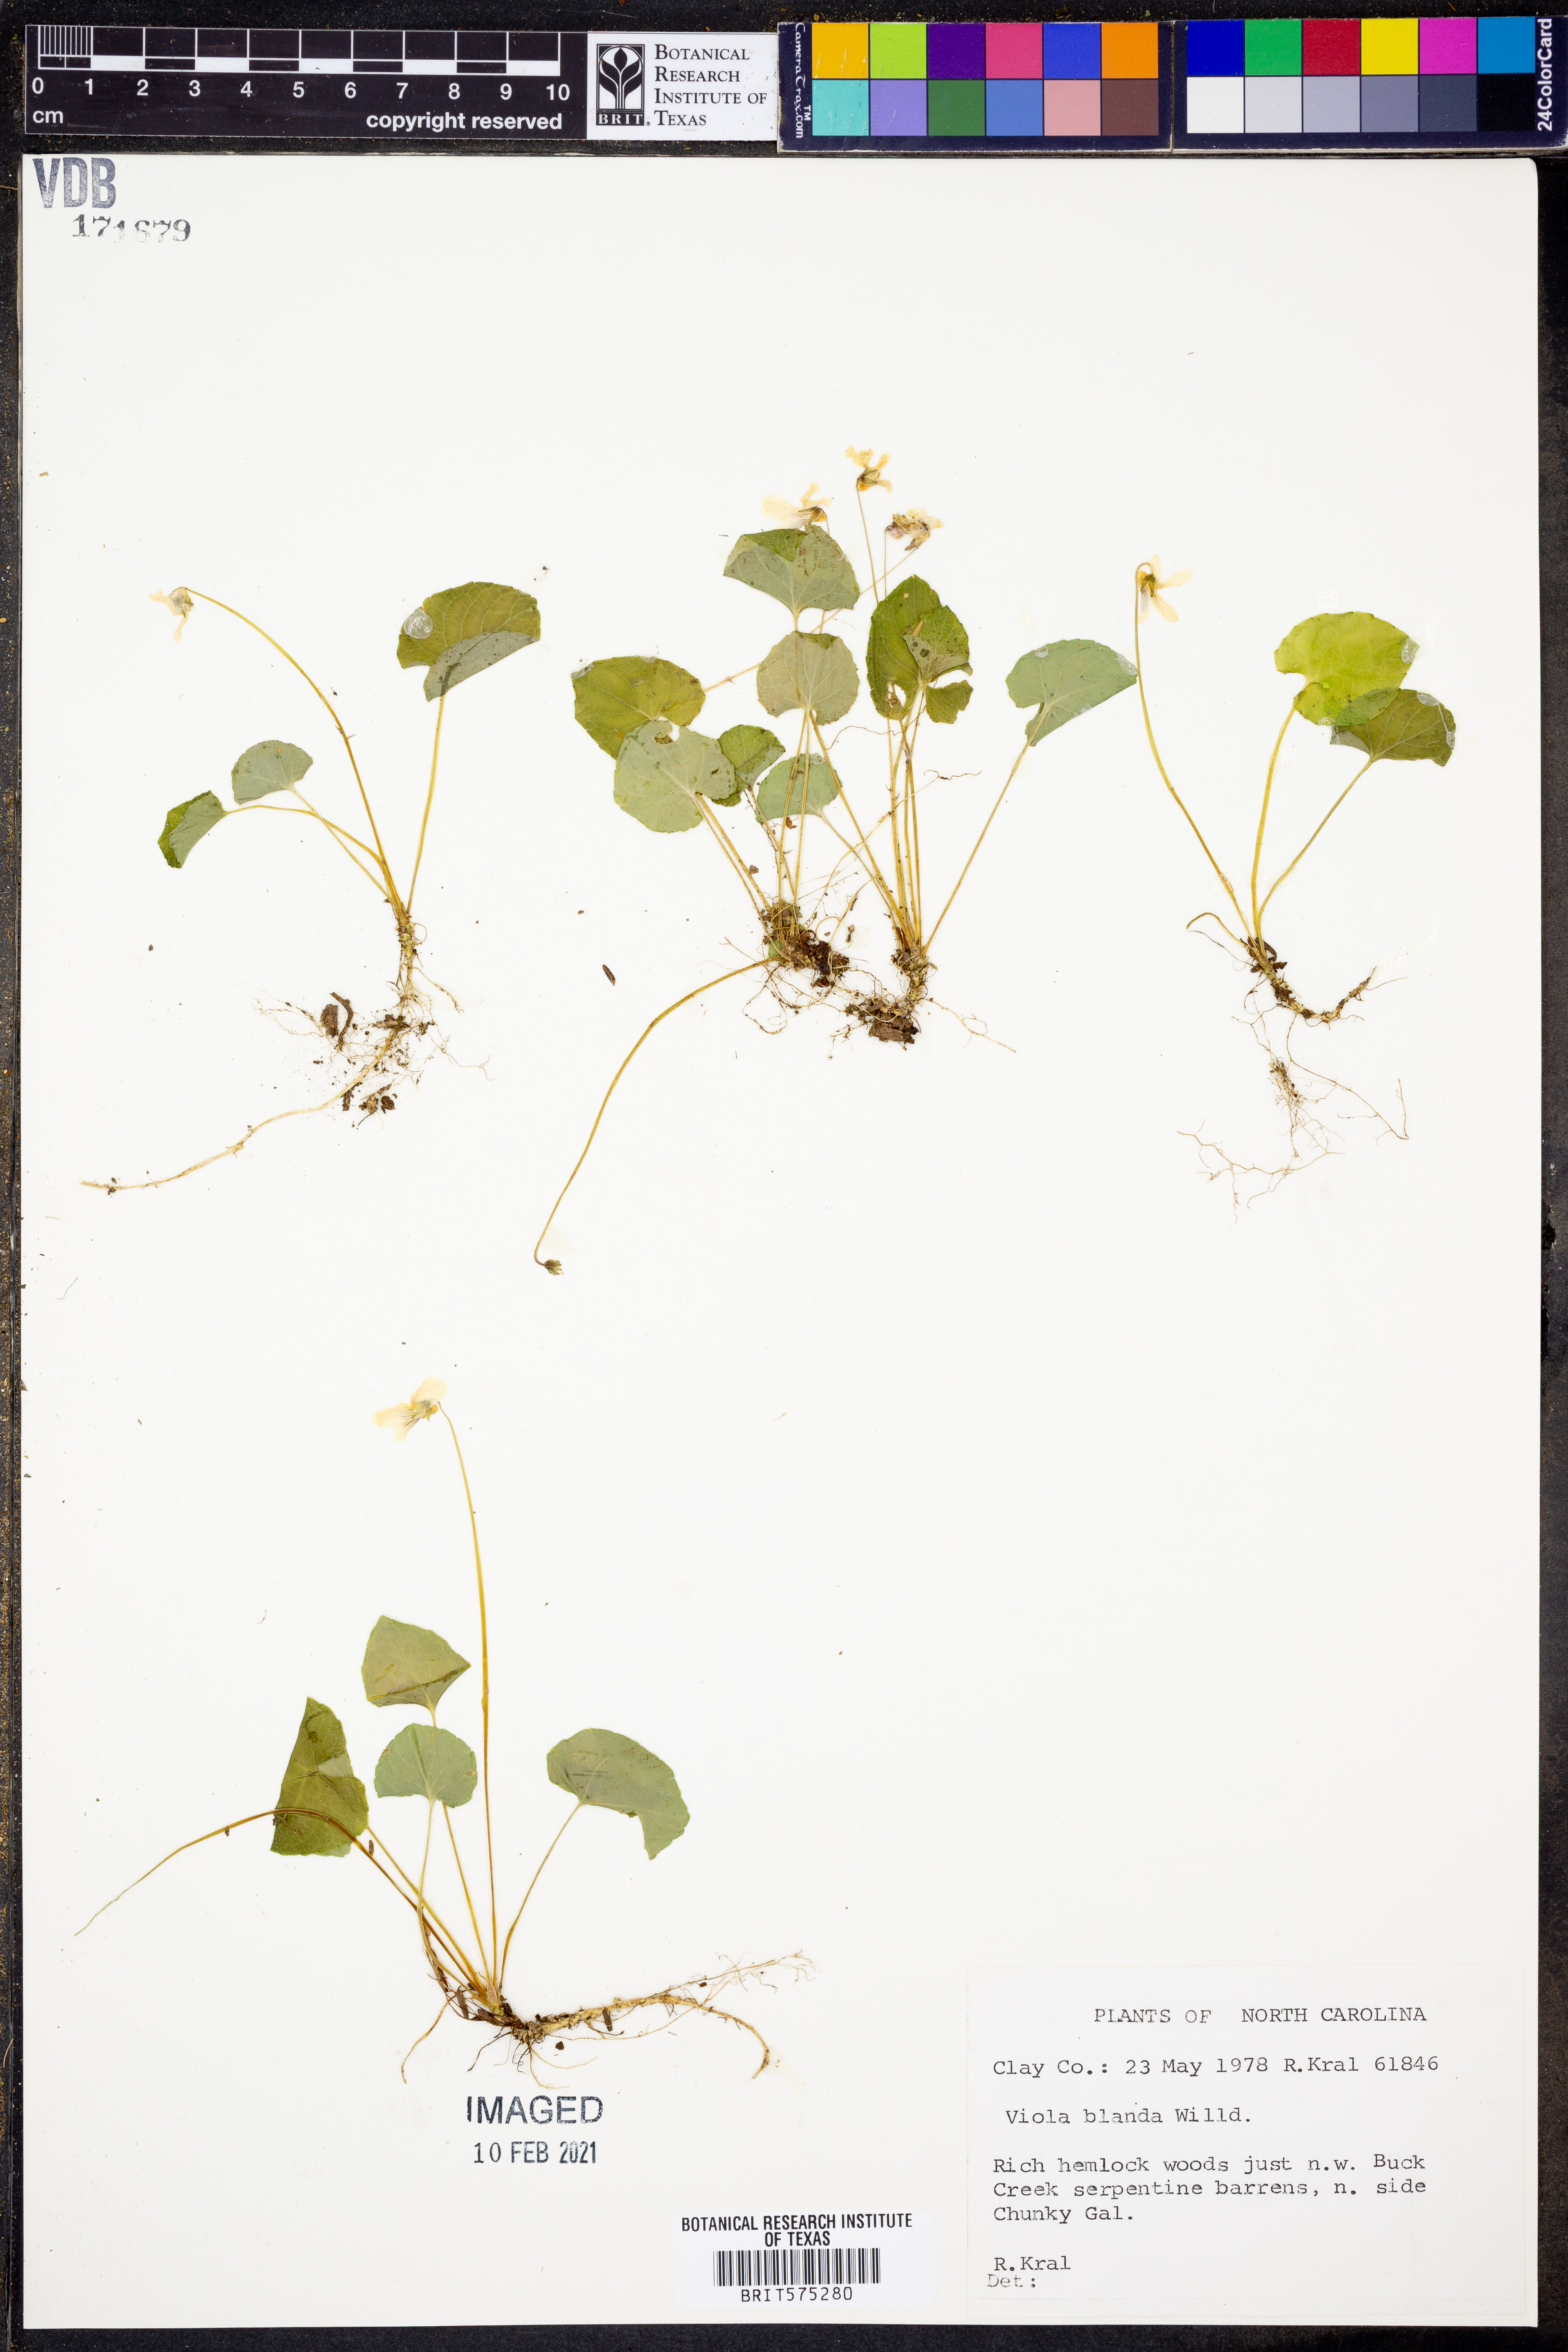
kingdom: Plantae
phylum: Tracheophyta
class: Magnoliopsida
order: Malpighiales
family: Violaceae
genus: Viola
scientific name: Viola blanda
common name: Sweet white violet
